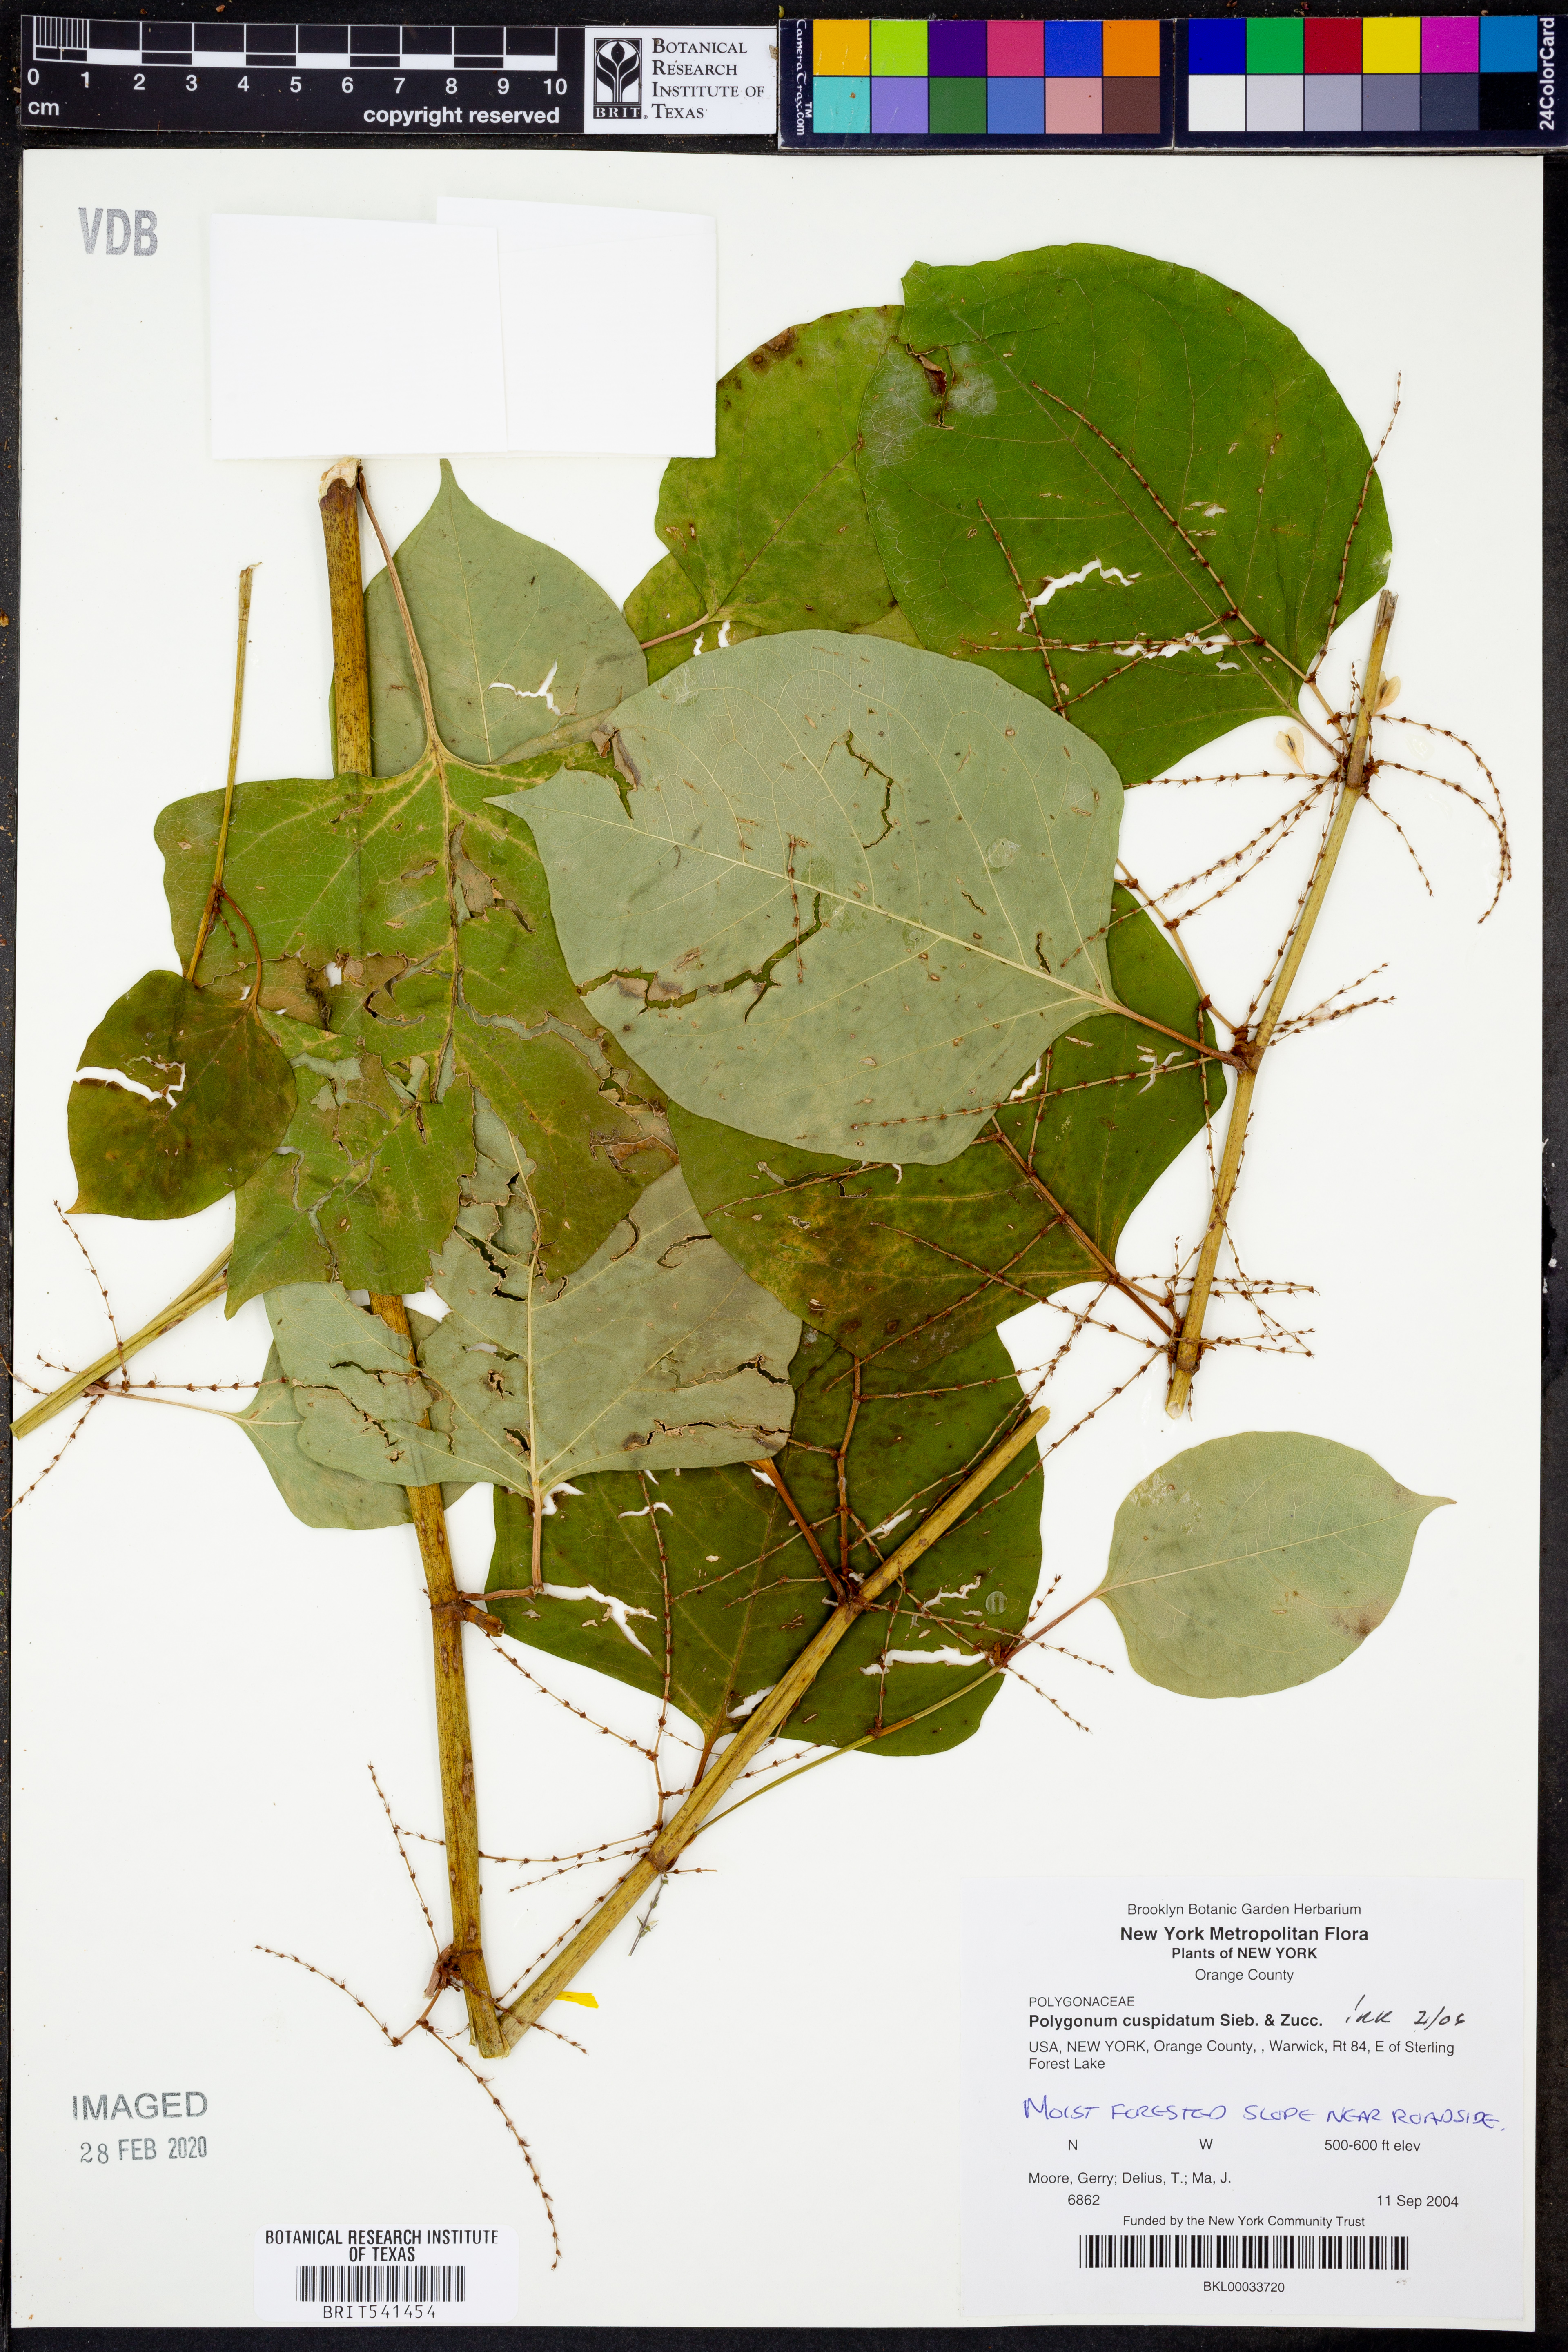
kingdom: Plantae
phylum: Tracheophyta
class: Magnoliopsida
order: Caryophyllales
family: Polygonaceae
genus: Reynoutria
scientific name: Reynoutria japonica
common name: Japanese knotweed
